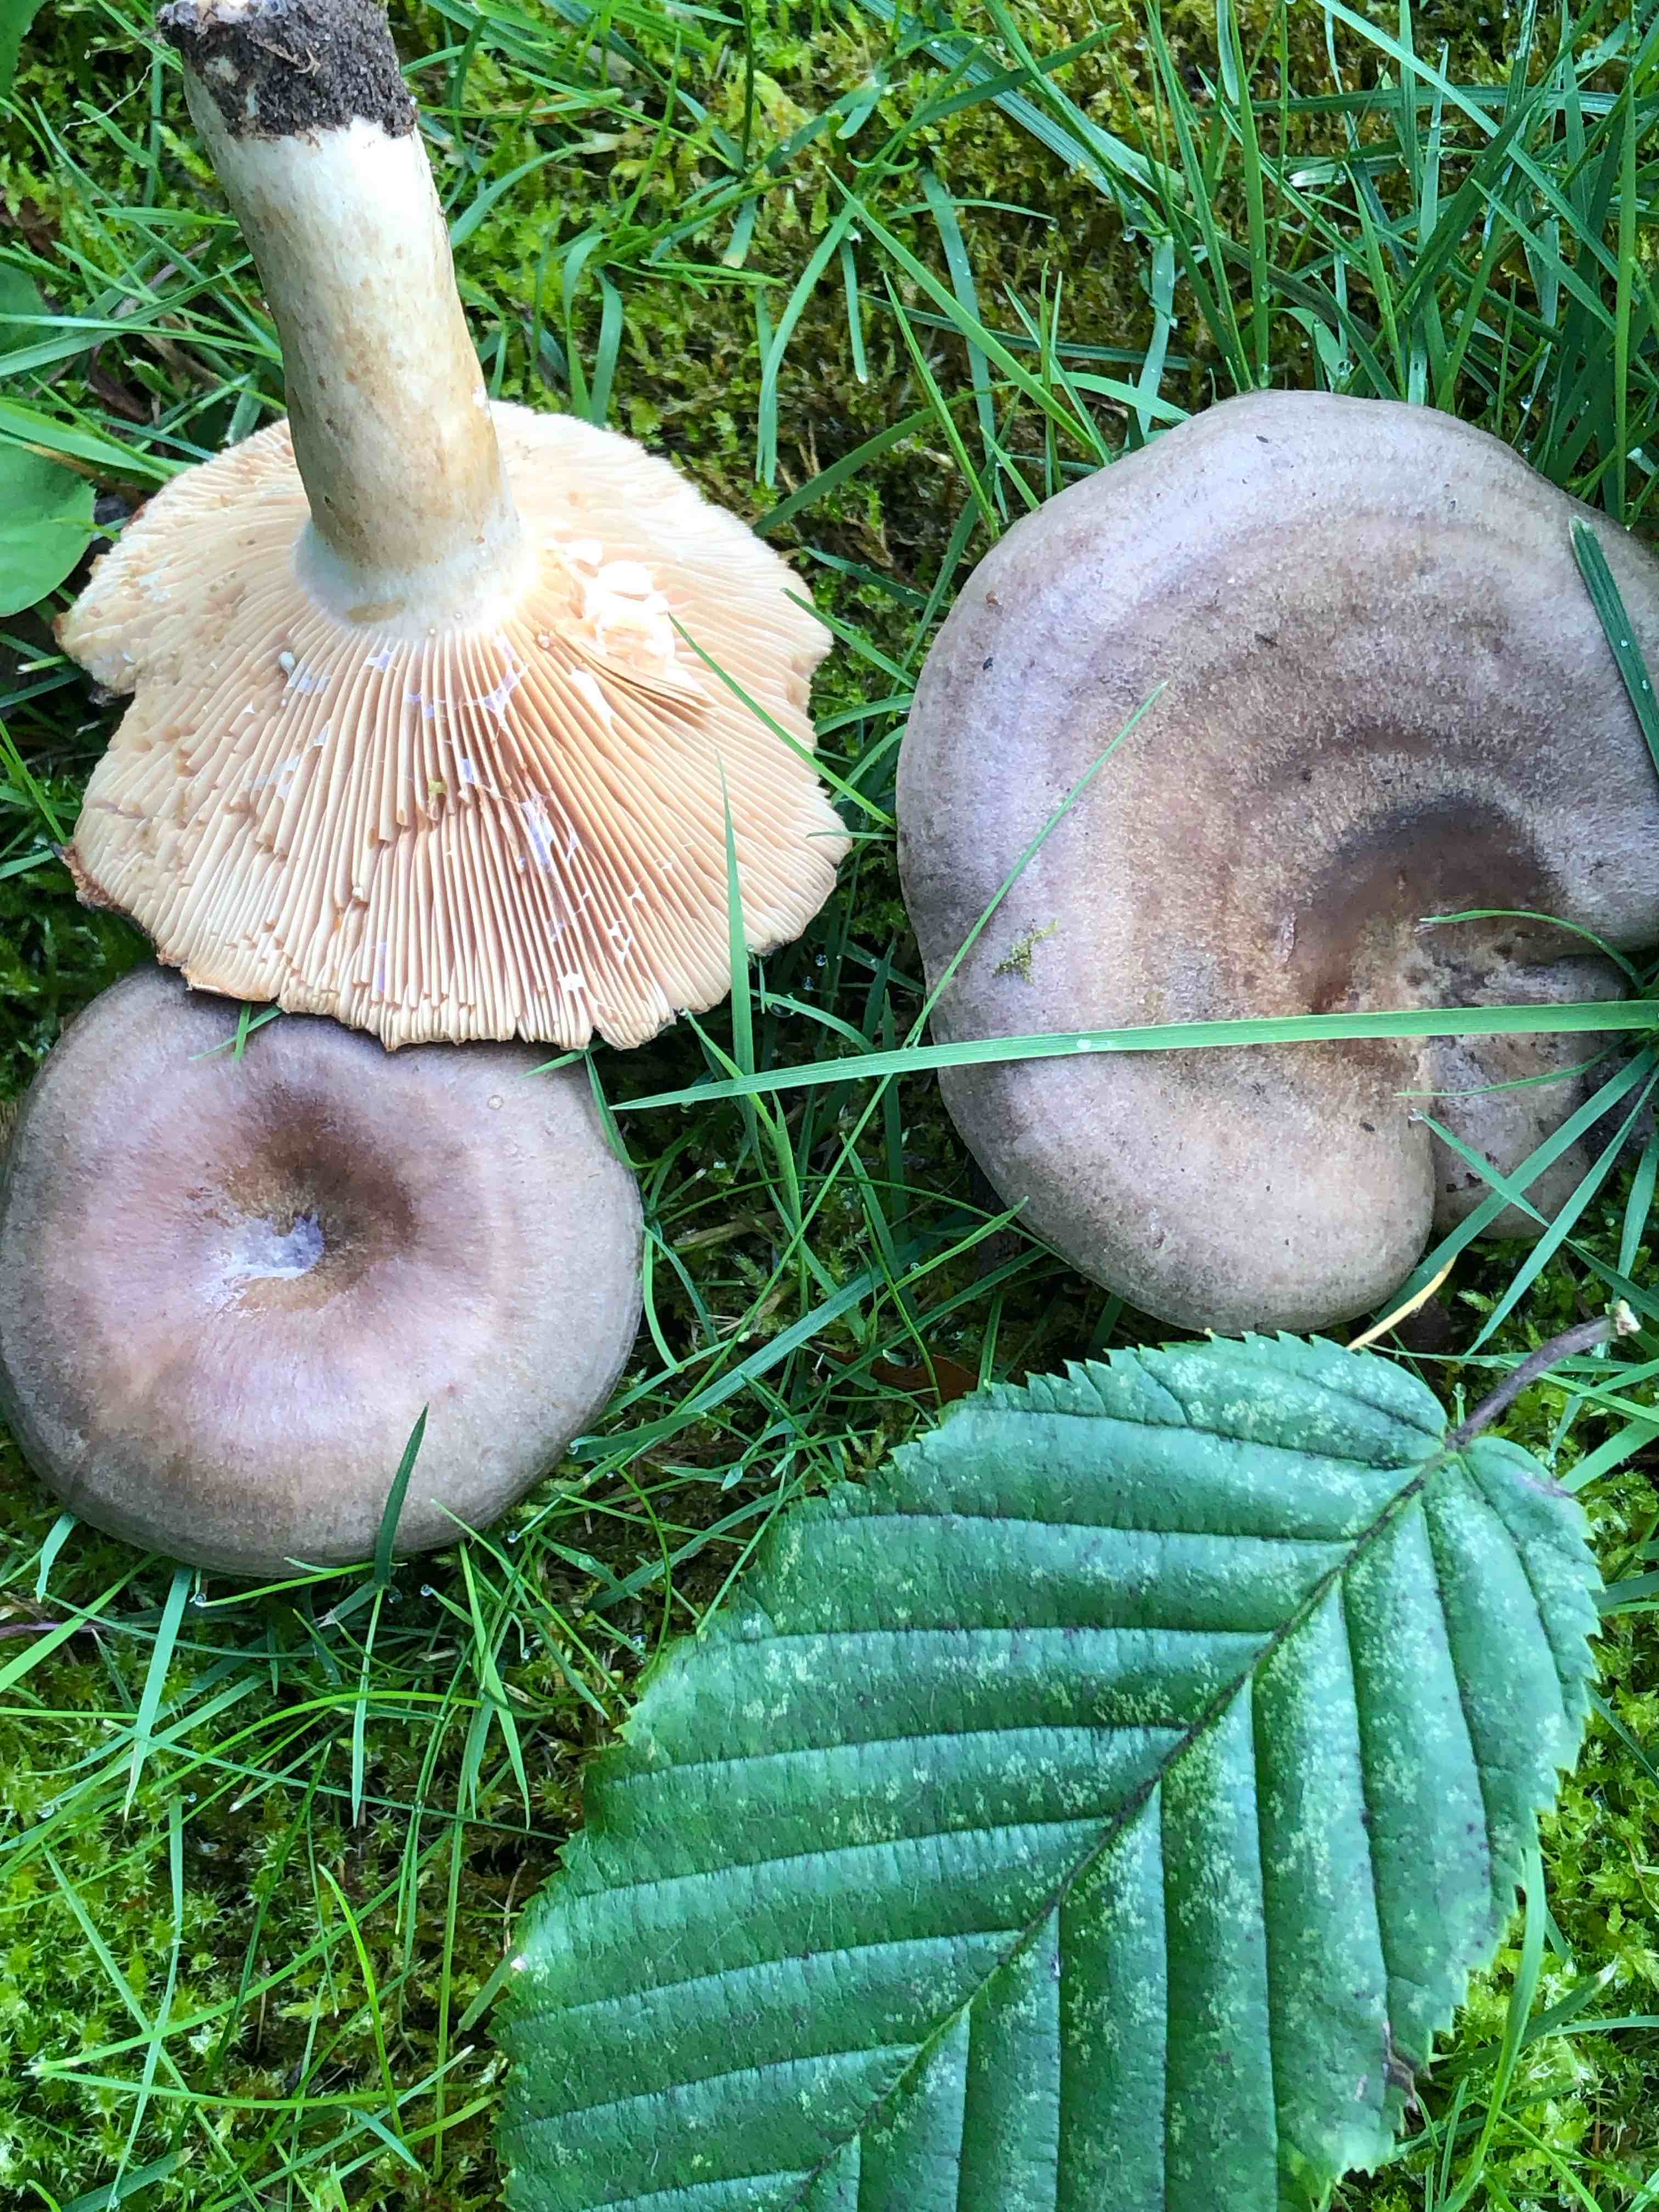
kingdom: Fungi
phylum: Basidiomycota
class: Agaricomycetes
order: Russulales
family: Russulaceae
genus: Lactarius
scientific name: Lactarius circellatus
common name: avnbøg-mælkehat
